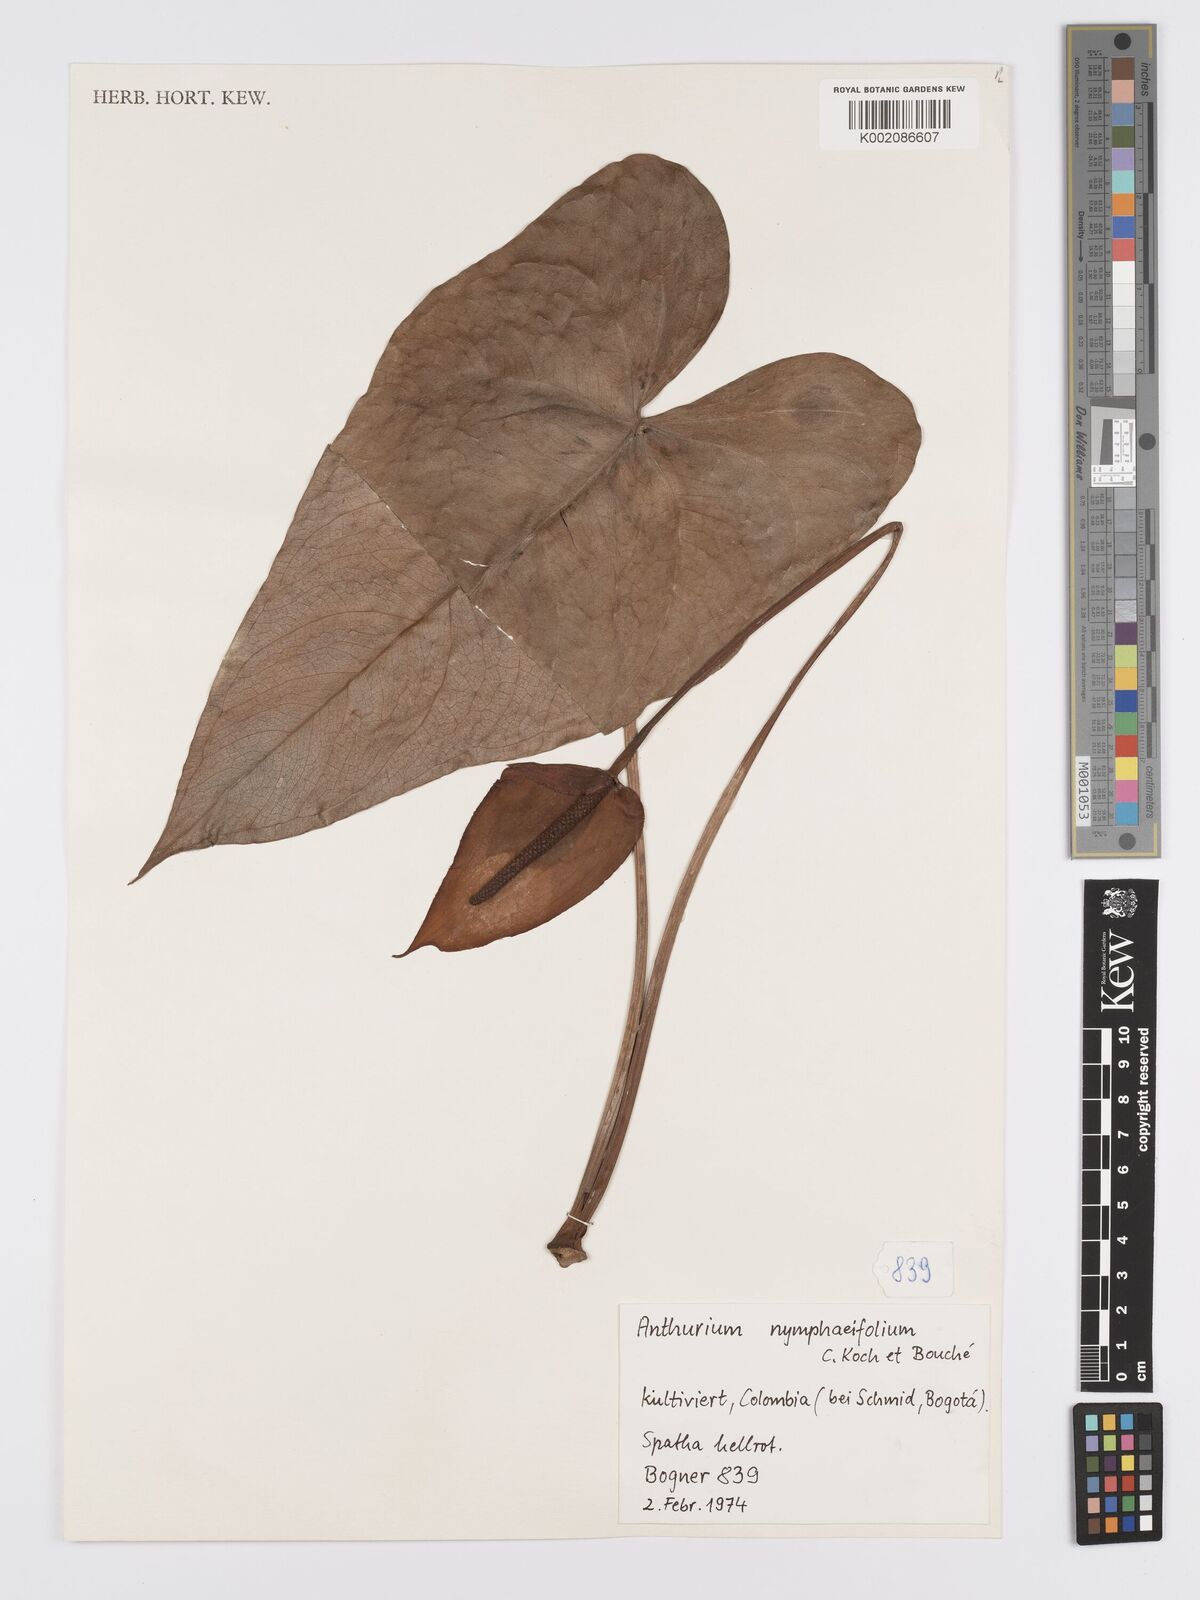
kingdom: Plantae
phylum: Tracheophyta
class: Liliopsida
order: Alismatales
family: Araceae
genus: Anthurium
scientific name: Anthurium nymphaeifolium
